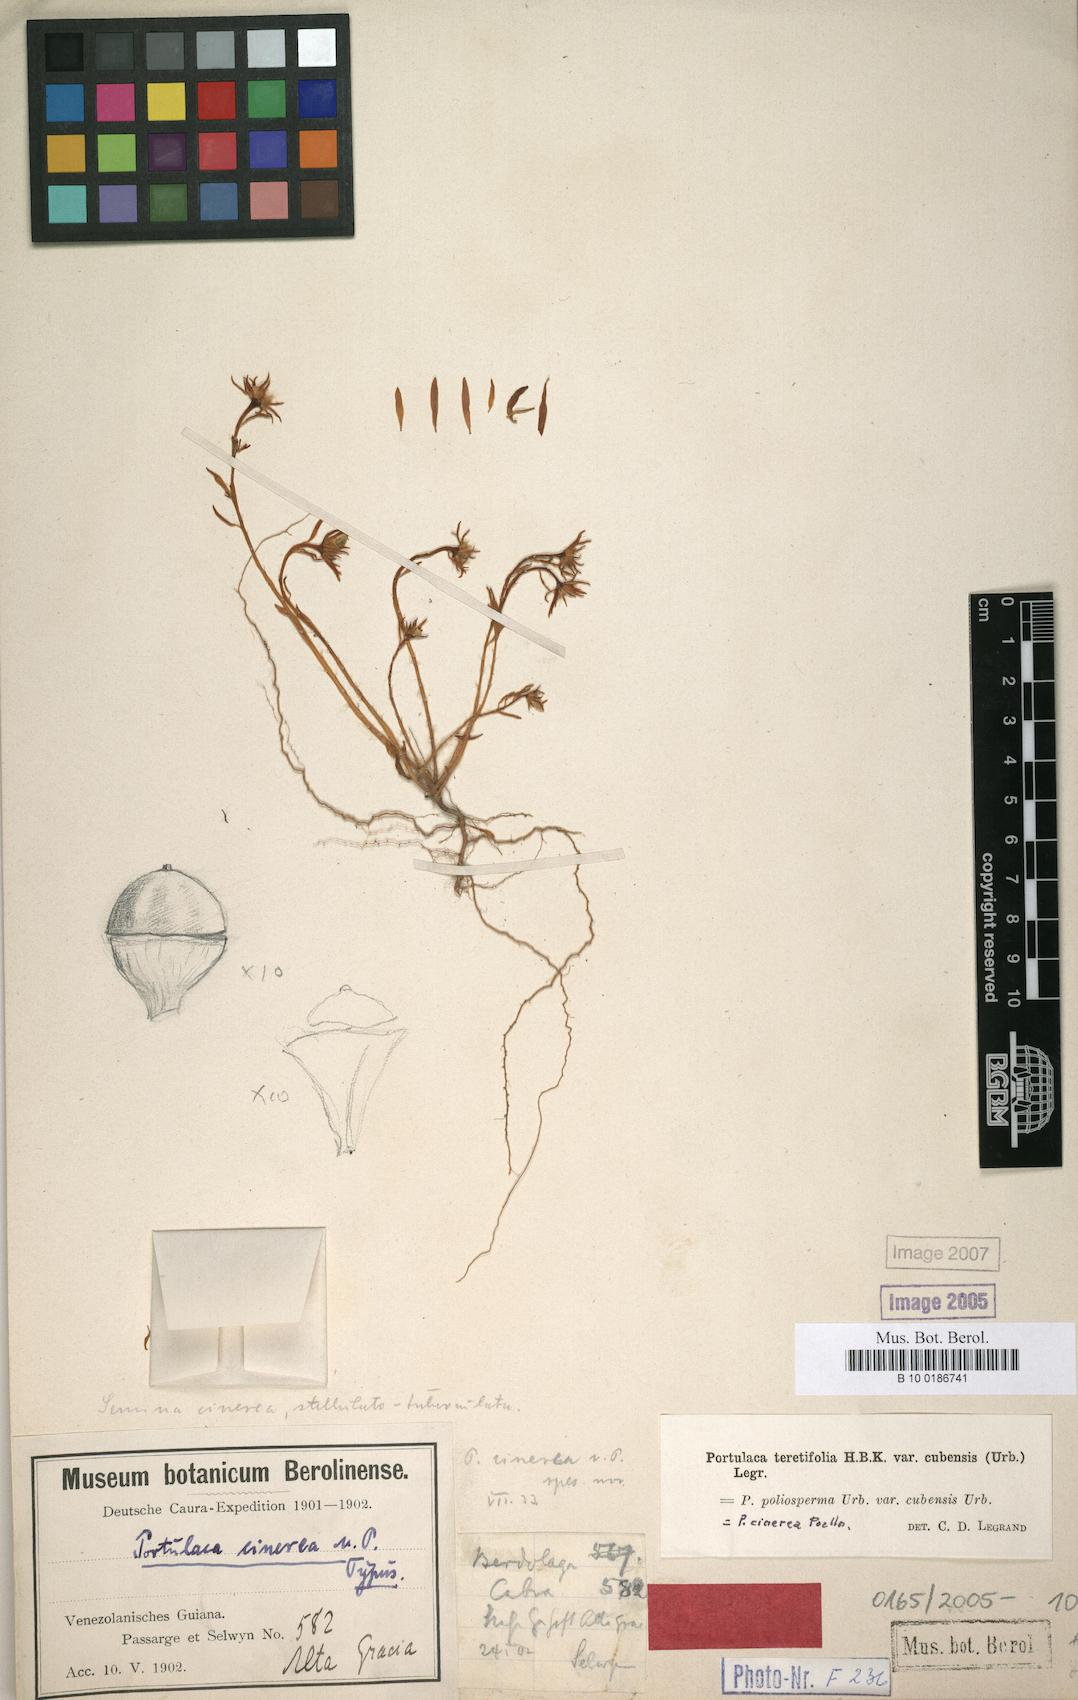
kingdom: Plantae
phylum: Tracheophyta
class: Magnoliopsida
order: Caryophyllales
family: Portulacaceae
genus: Portulaca
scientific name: Portulaca biloba
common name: Cuban purslane
